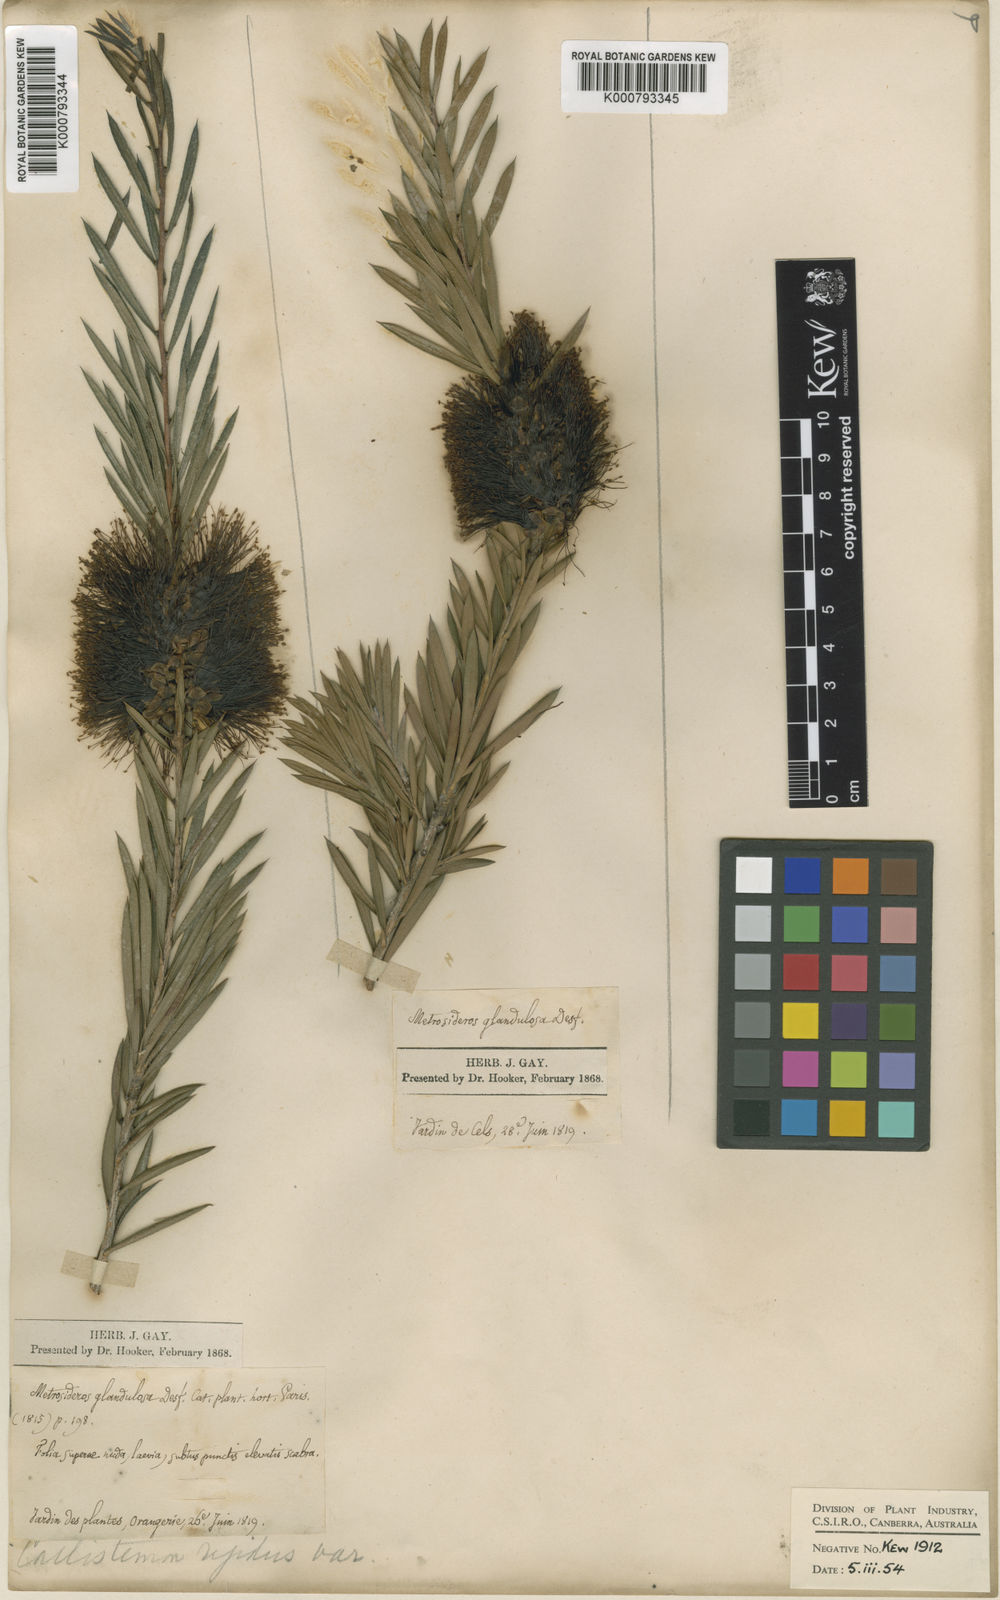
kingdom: Plantae
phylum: Tracheophyta
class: Magnoliopsida
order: Myrtales
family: Myrtaceae
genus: Callistemon
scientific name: Callistemon rigidus
